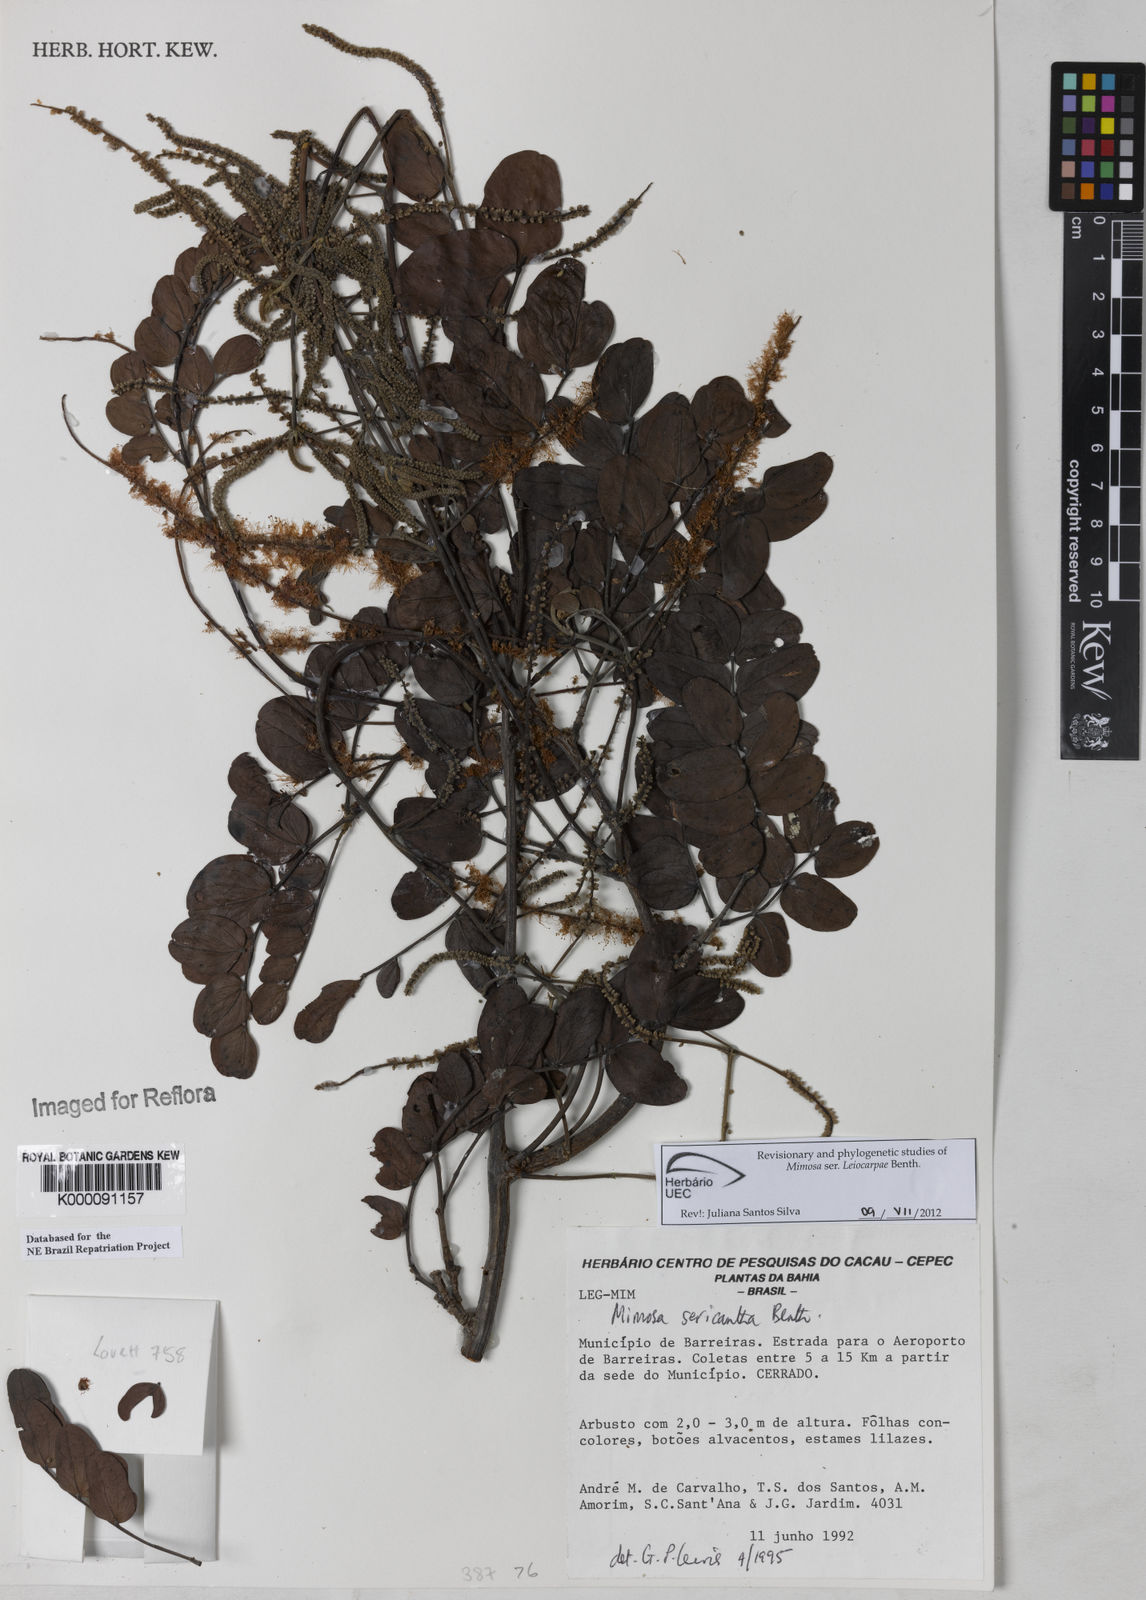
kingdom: Plantae
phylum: Tracheophyta
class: Magnoliopsida
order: Fabales
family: Fabaceae
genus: Mimosa
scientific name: Mimosa sericantha
